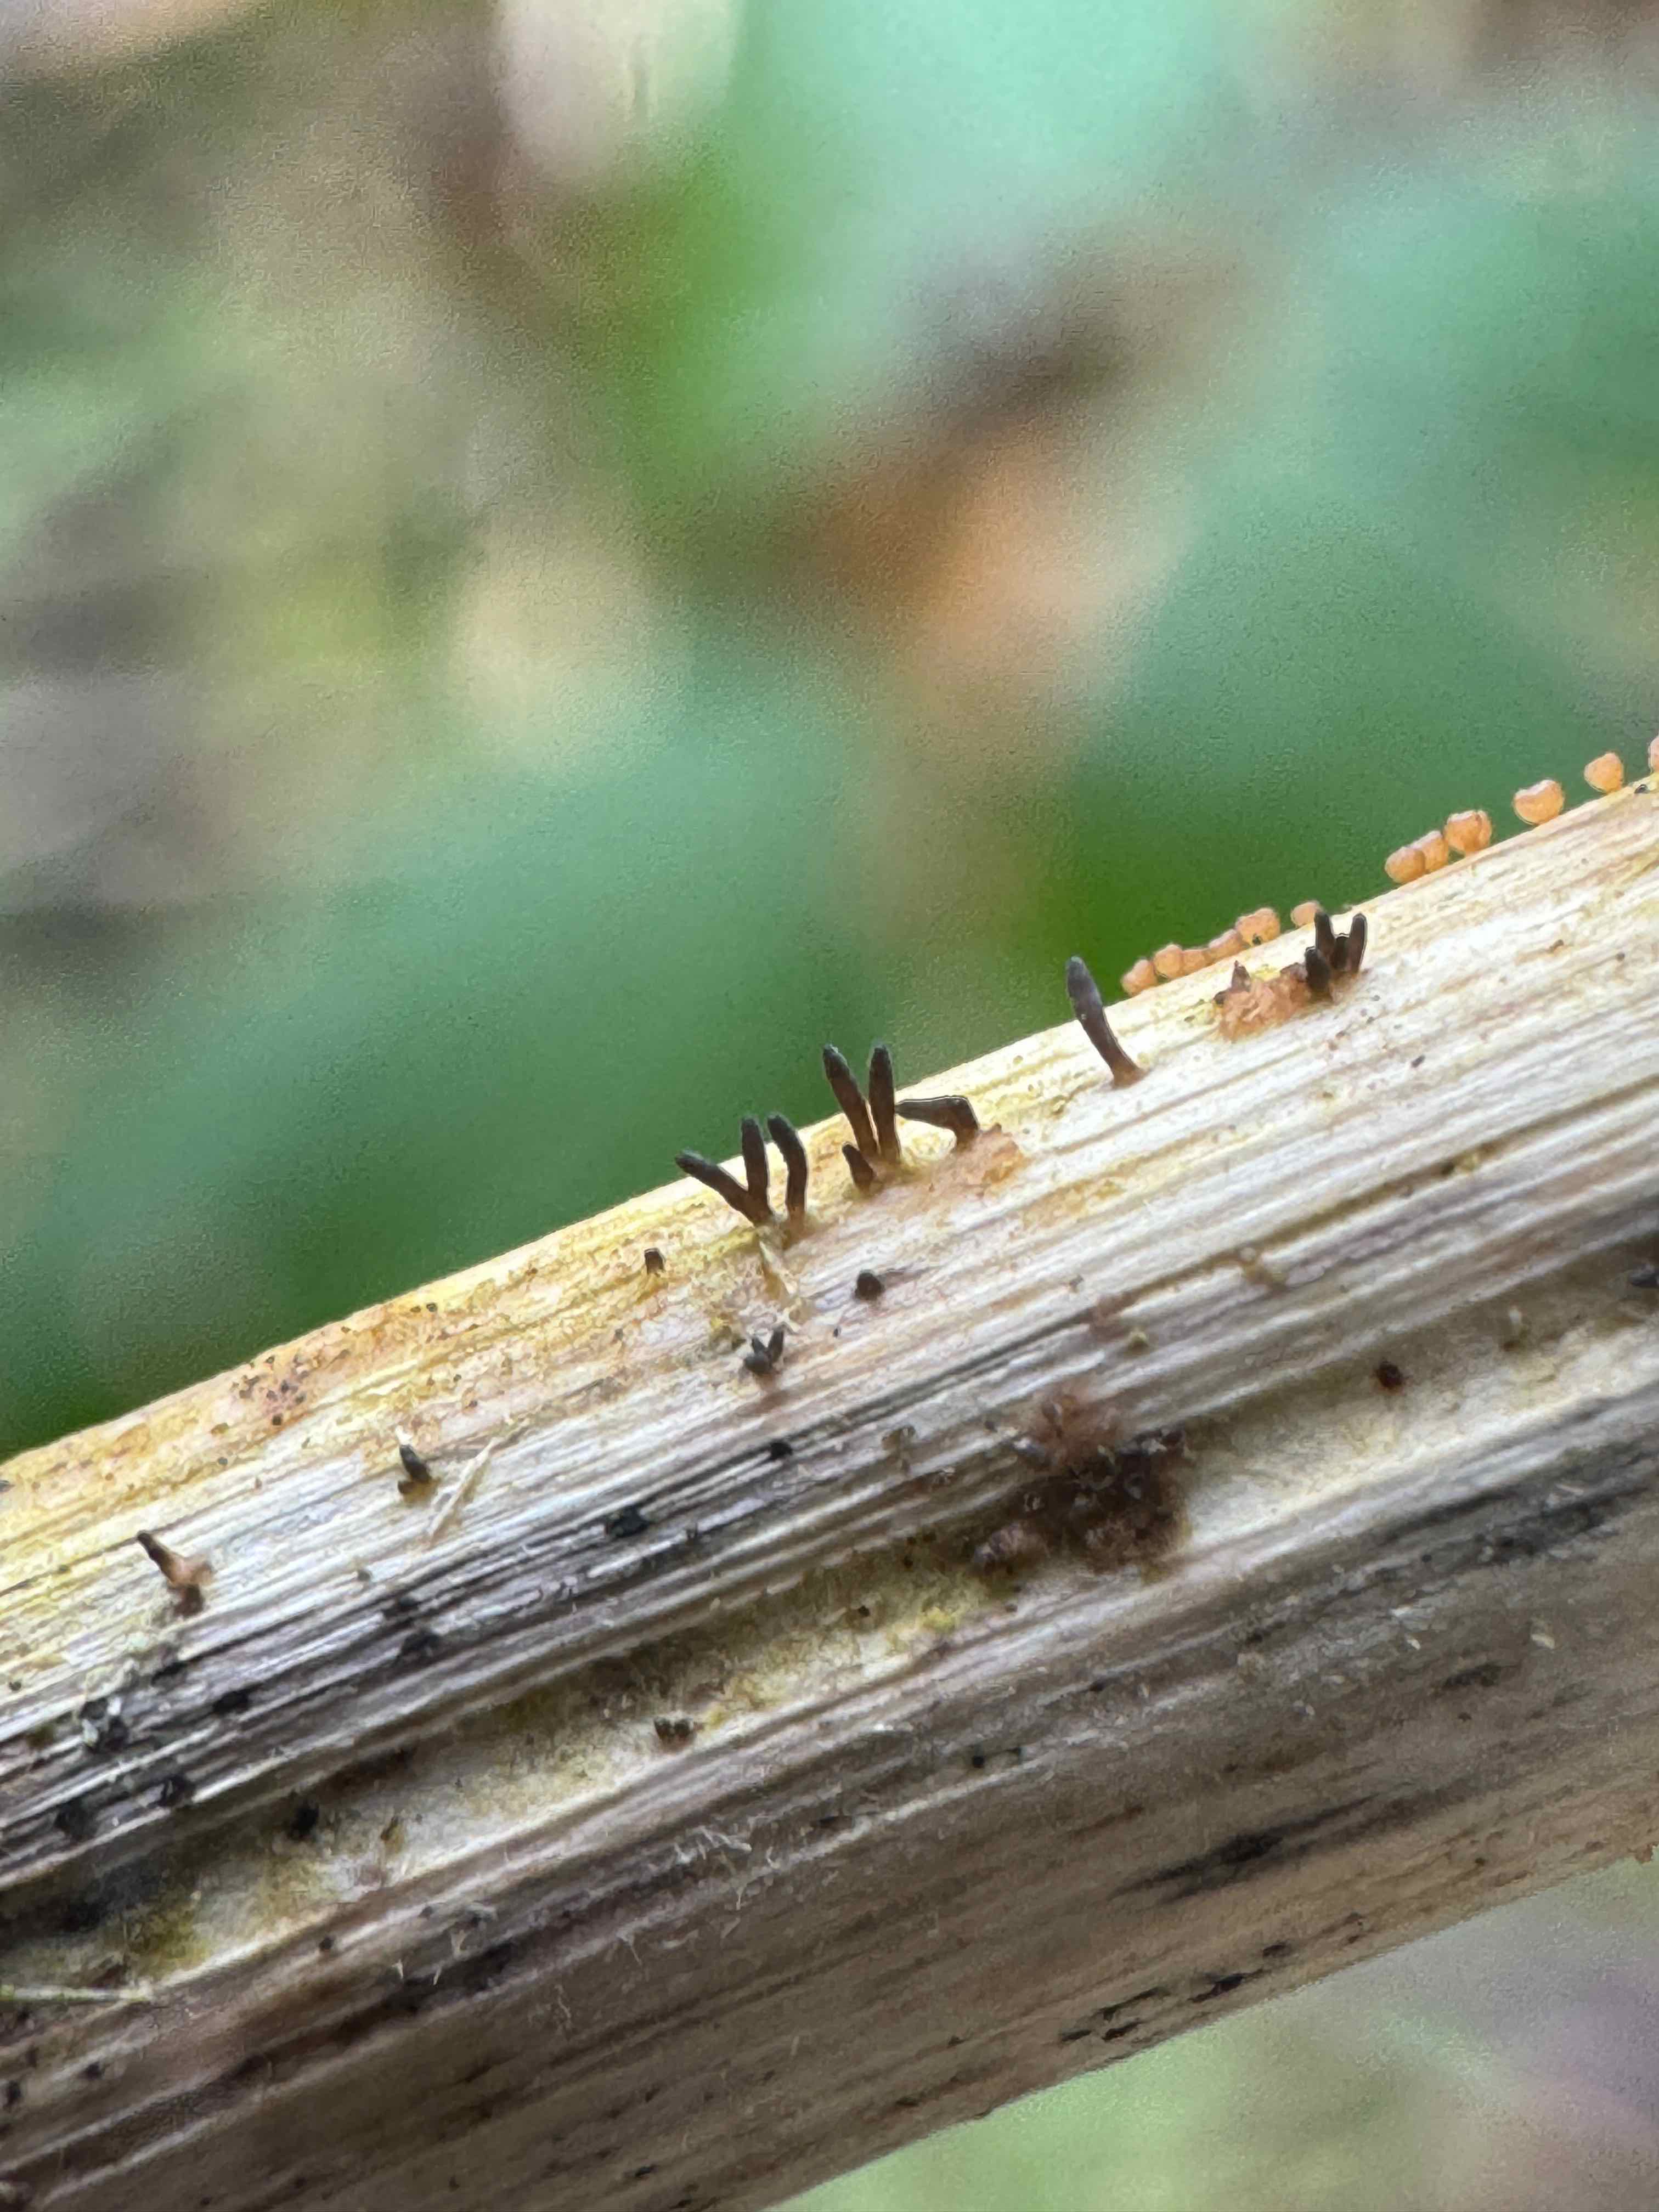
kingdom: Fungi
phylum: Ascomycota
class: Dothideomycetes
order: Acrospermales
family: Acrospermaceae
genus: Acrospermum
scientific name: Acrospermum compressum
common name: nælde-stængeltunge
